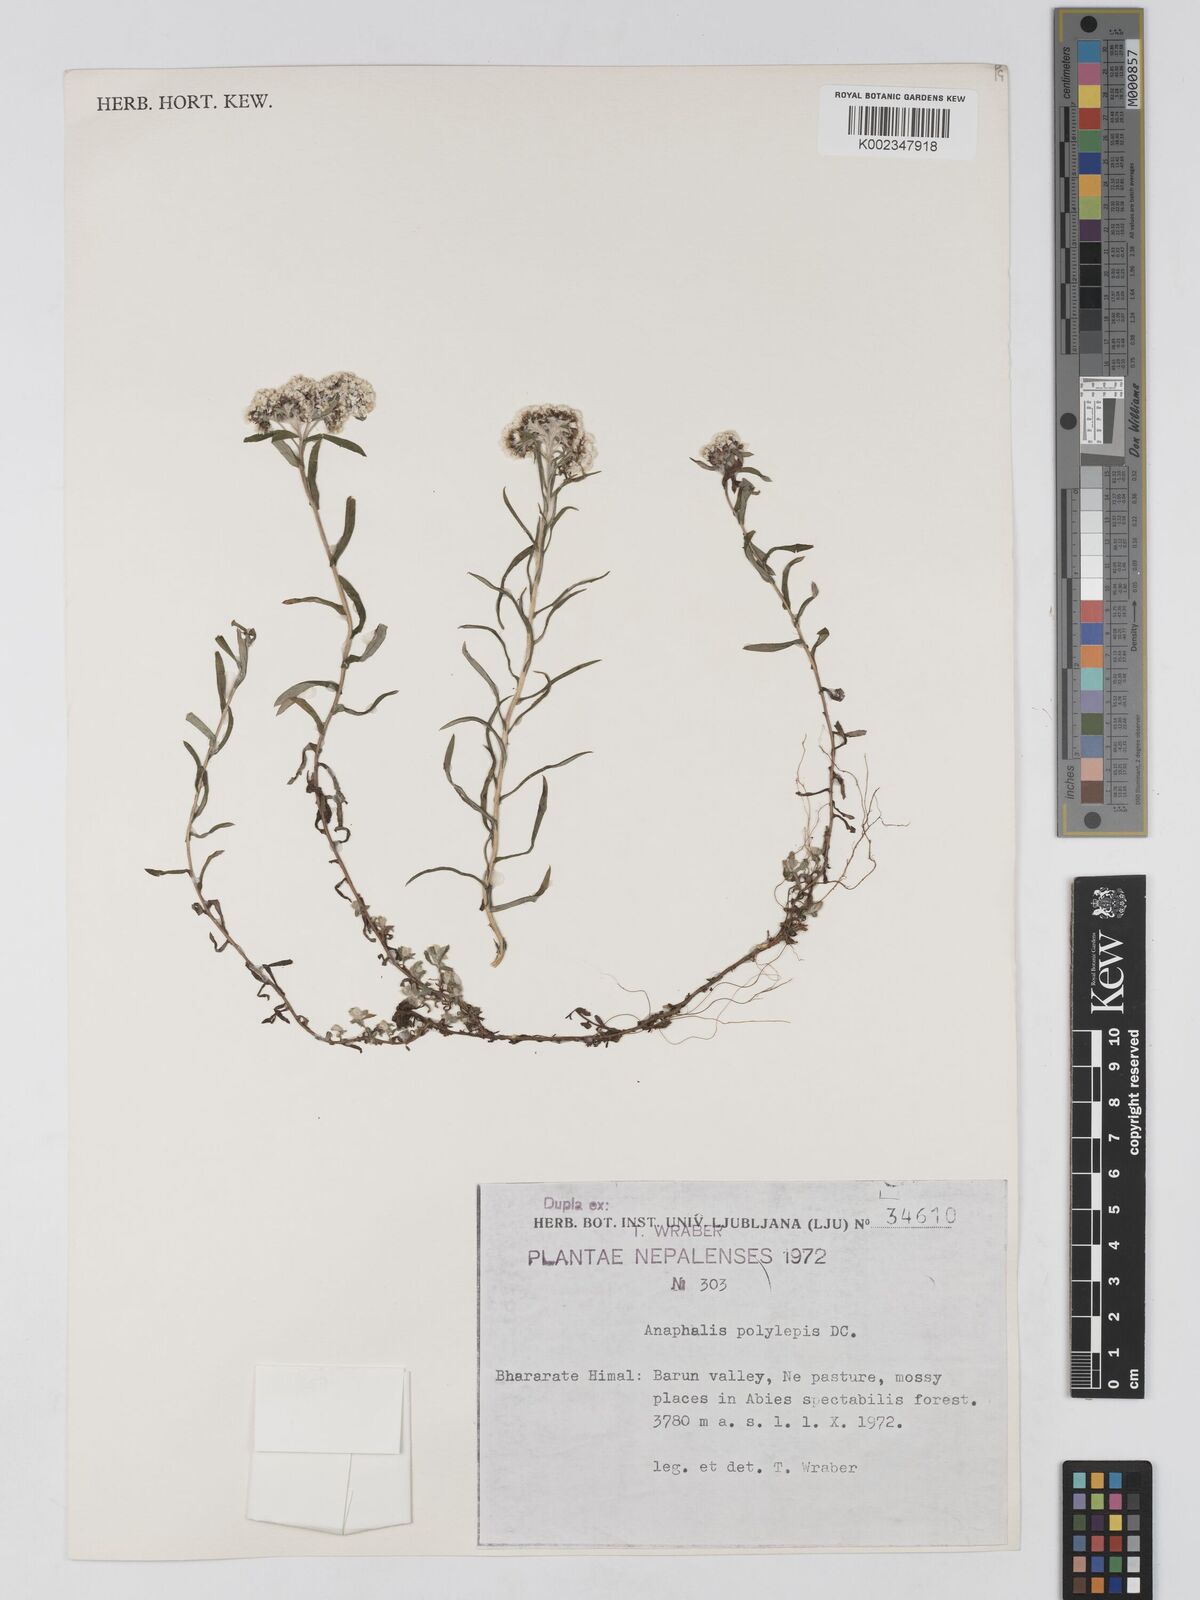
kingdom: Plantae
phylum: Tracheophyta
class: Magnoliopsida
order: Asterales
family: Asteraceae
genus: Anaphalis
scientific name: Anaphalis royleana
